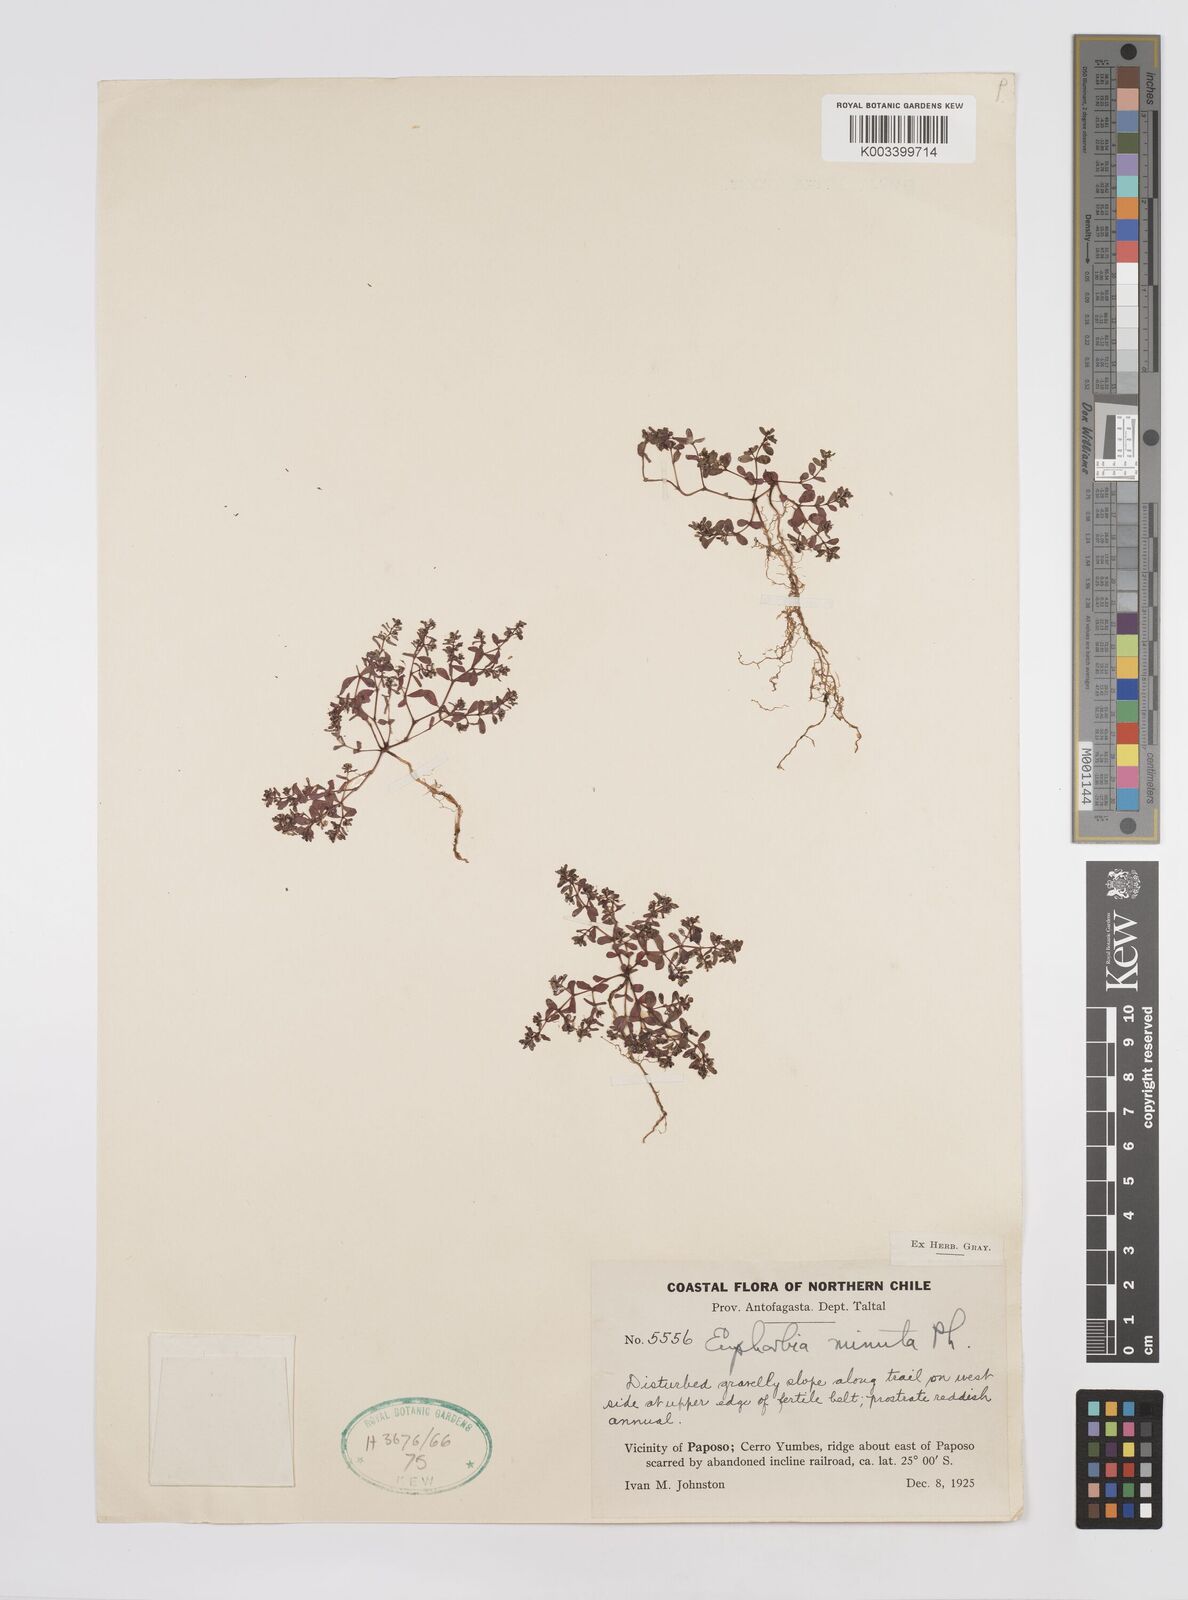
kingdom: Plantae
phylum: Tracheophyta
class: Magnoliopsida
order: Malpighiales
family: Euphorbiaceae
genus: Euphorbia
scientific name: Euphorbia
